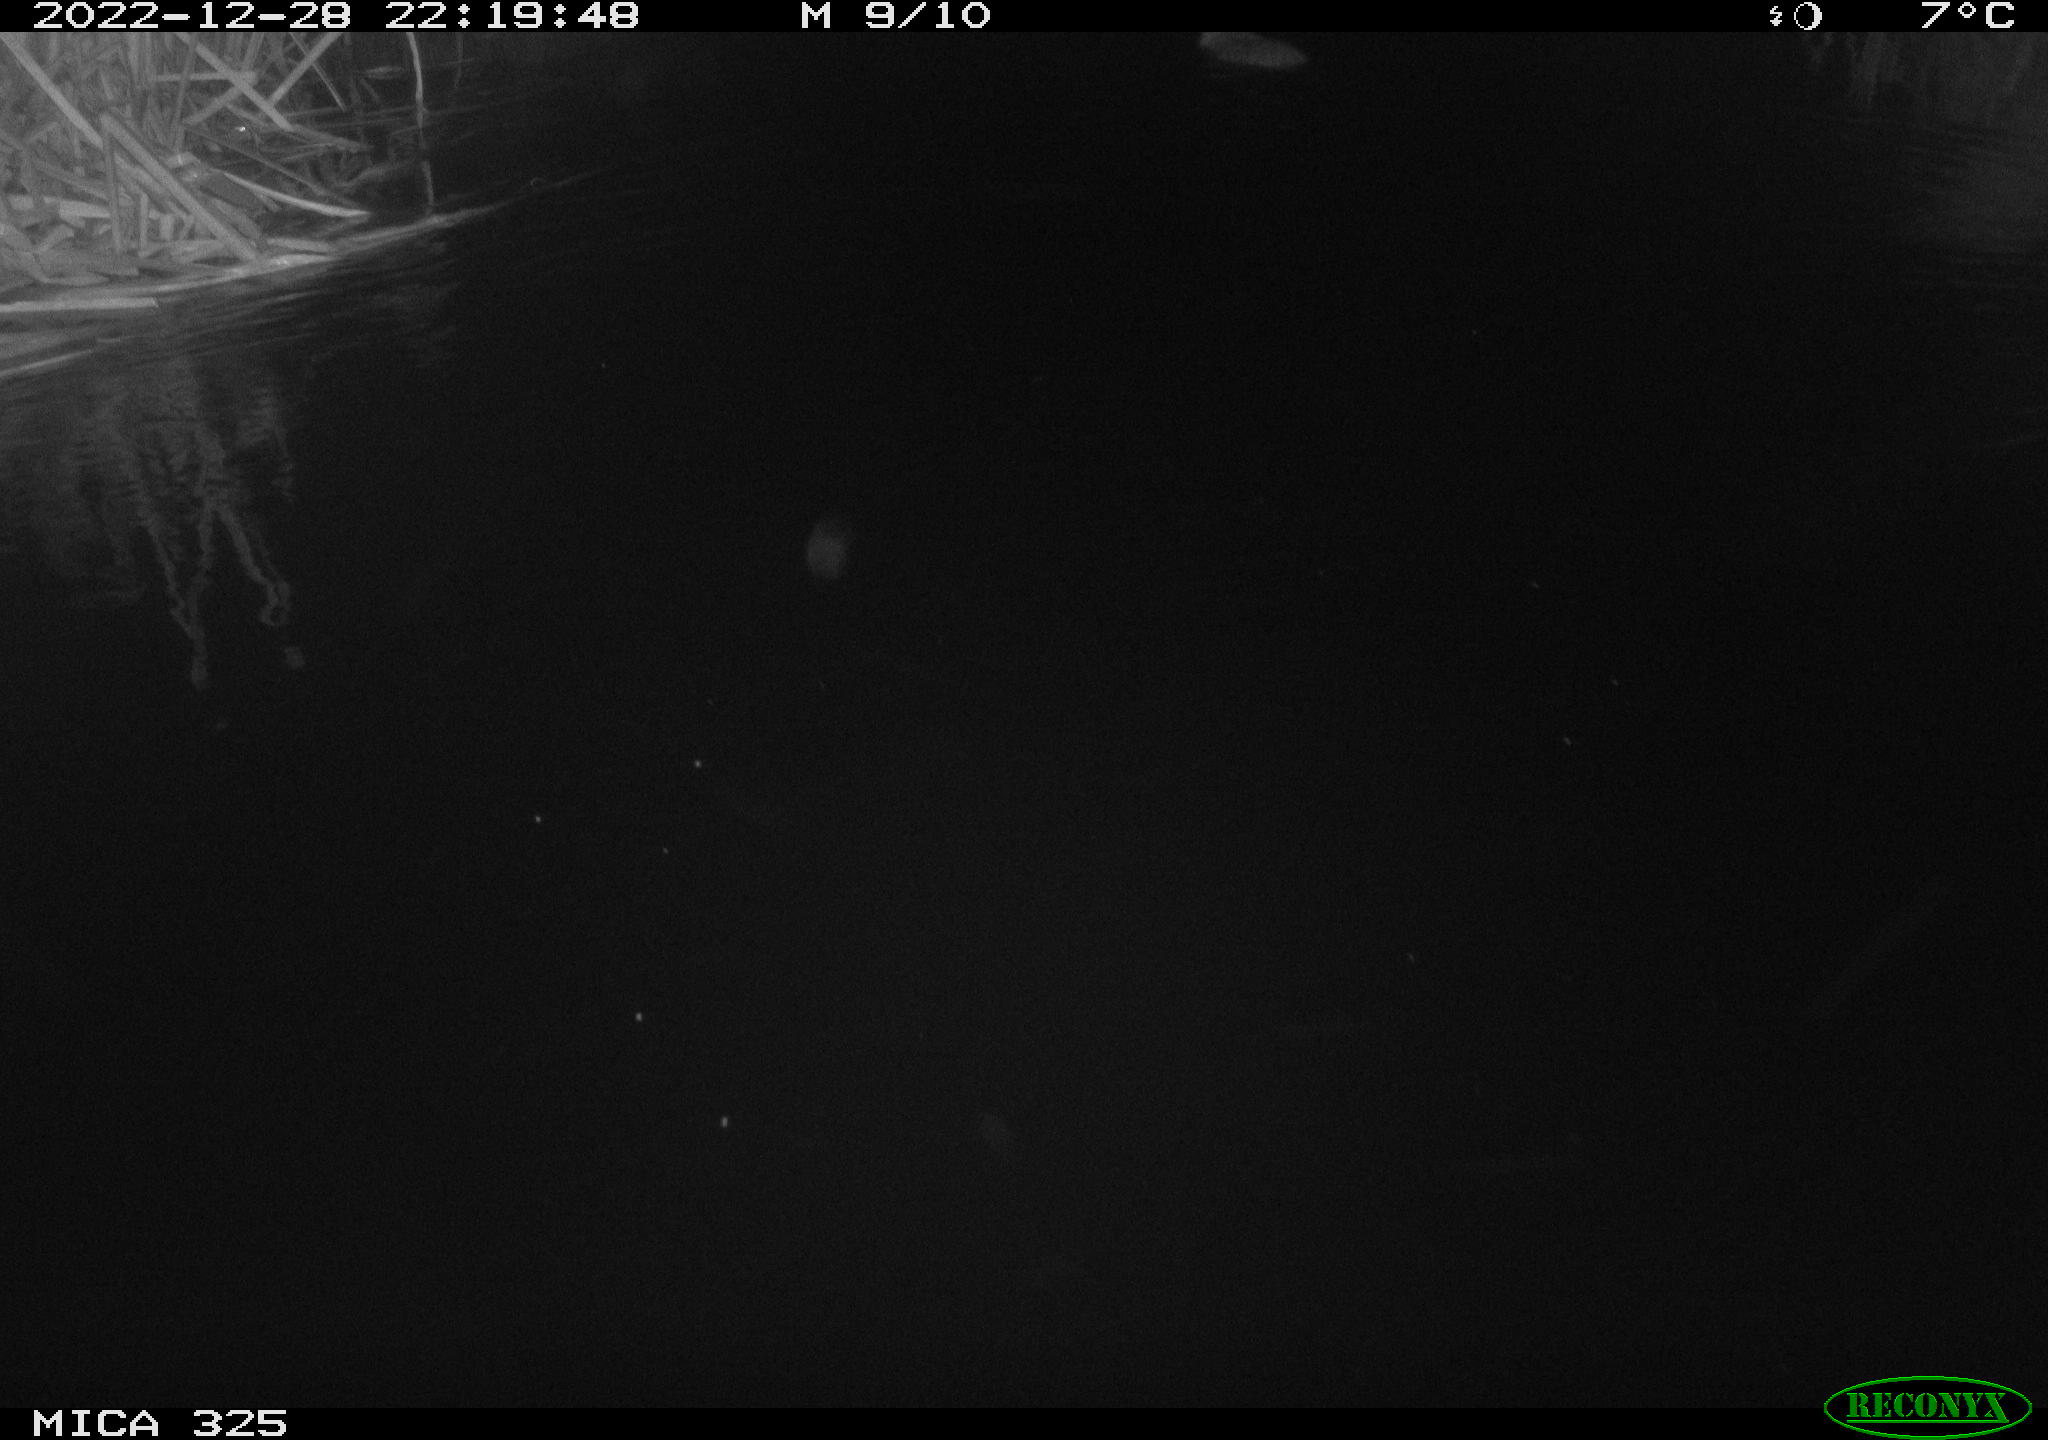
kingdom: Animalia
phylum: Chordata
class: Mammalia
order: Rodentia
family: Myocastoridae
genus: Myocastor
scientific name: Myocastor coypus
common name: Coypu
